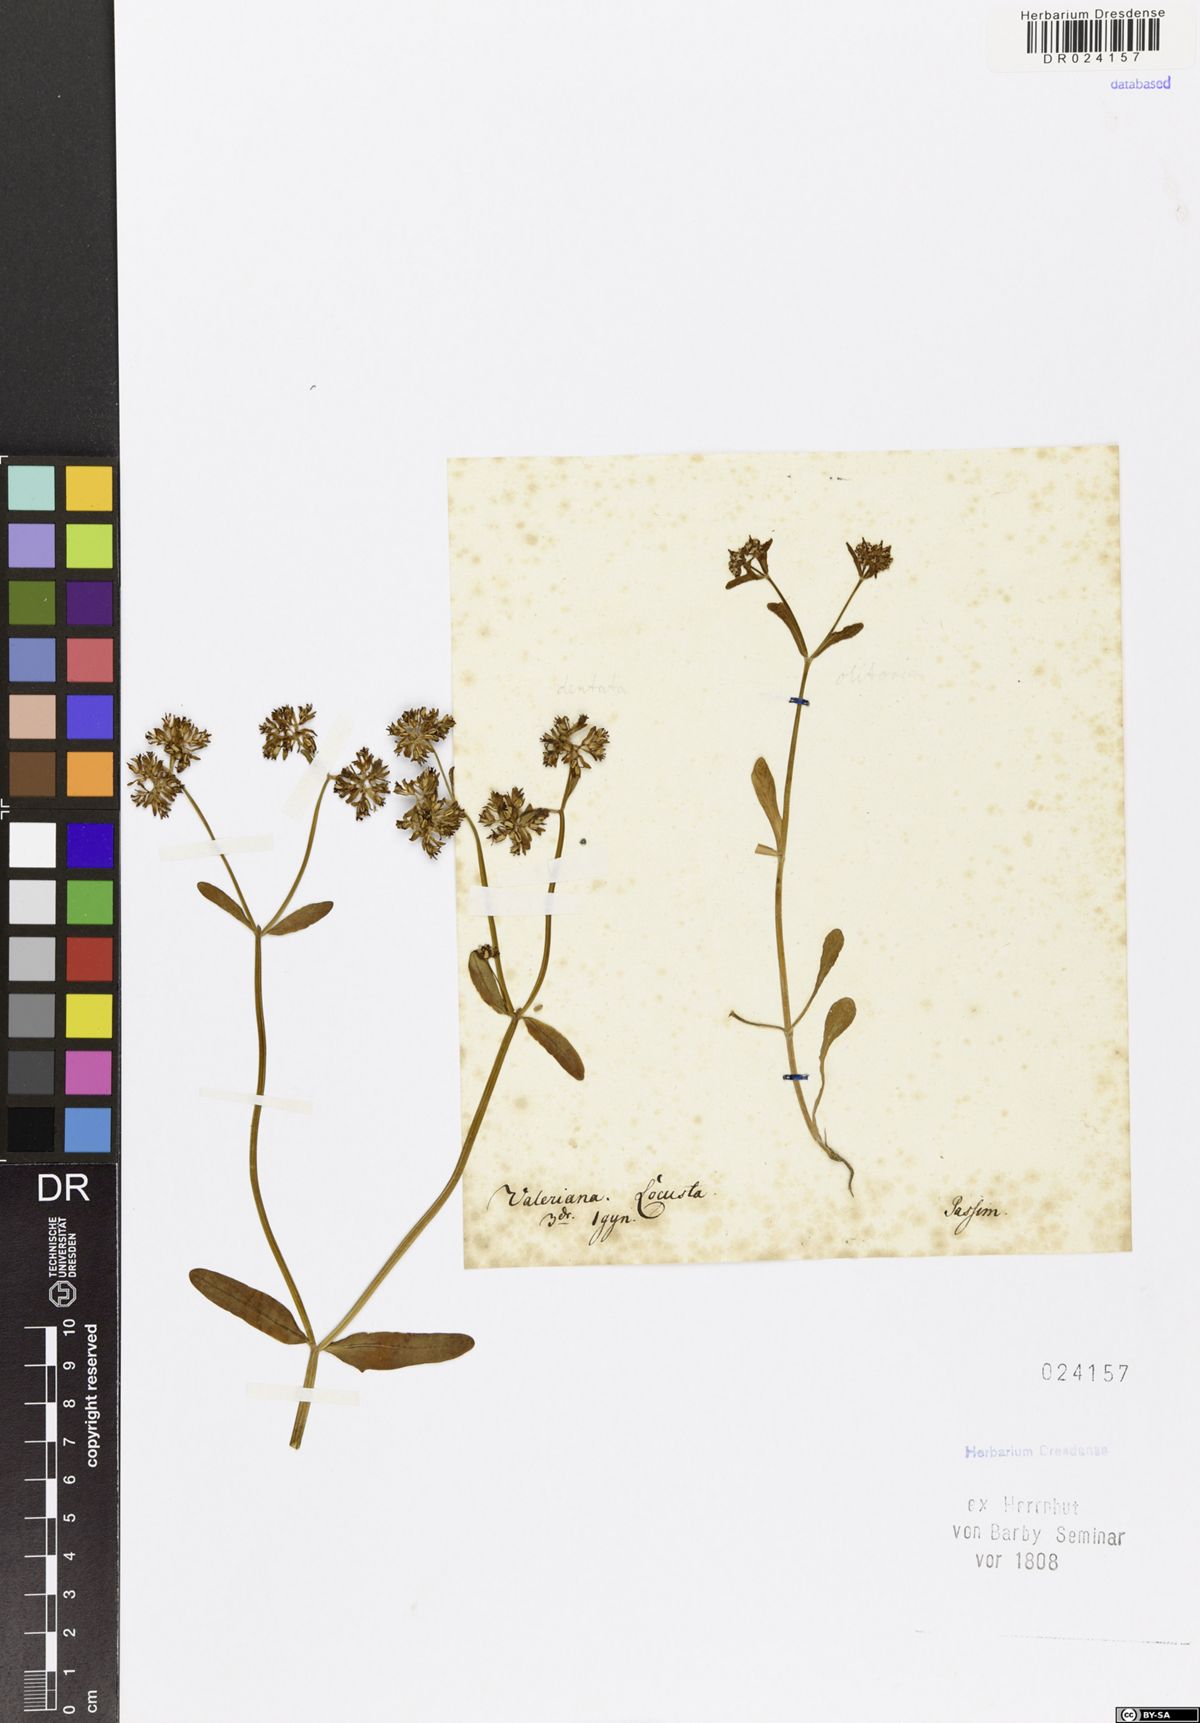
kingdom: Plantae
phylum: Tracheophyta
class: Magnoliopsida
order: Dipsacales
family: Caprifoliaceae
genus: Valerianella
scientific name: Valerianella locusta
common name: Common cornsalad
